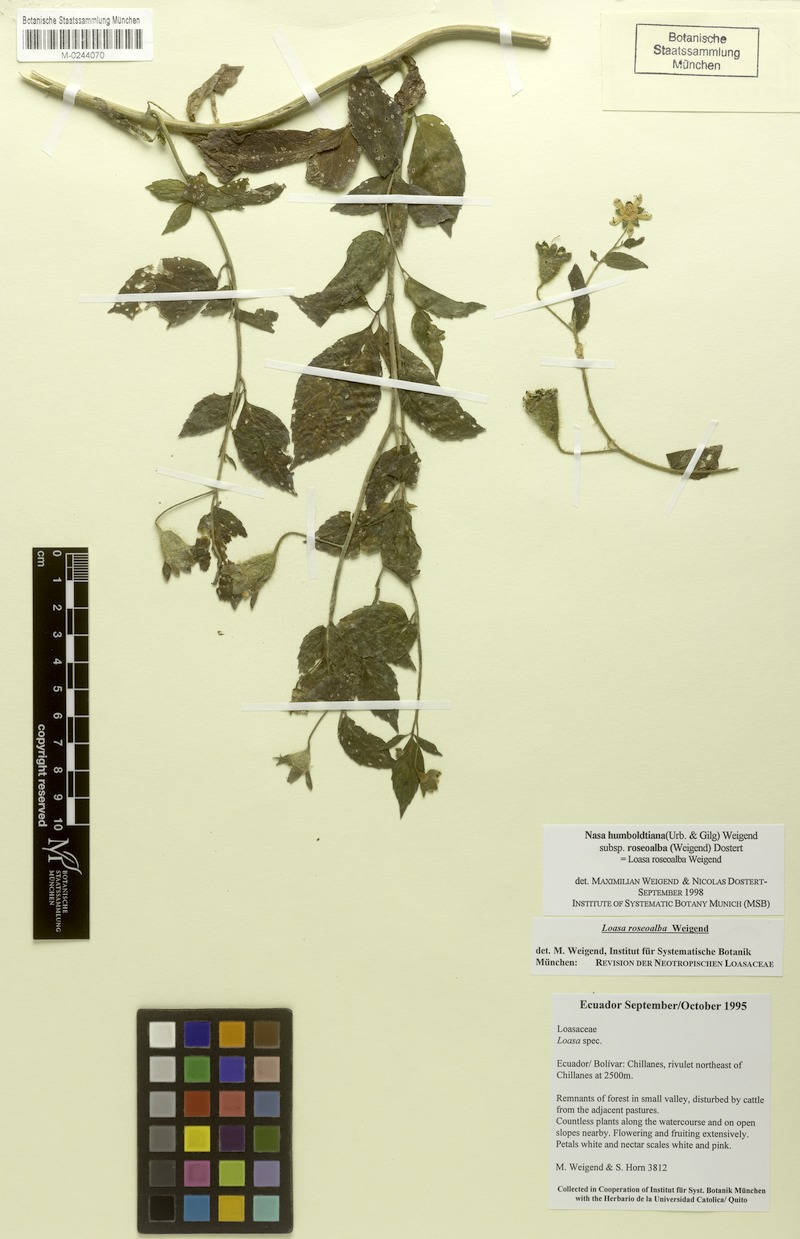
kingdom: Plantae
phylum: Tracheophyta
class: Magnoliopsida
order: Cornales
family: Loasaceae
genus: Nasa
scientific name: Nasa humboldtiana
